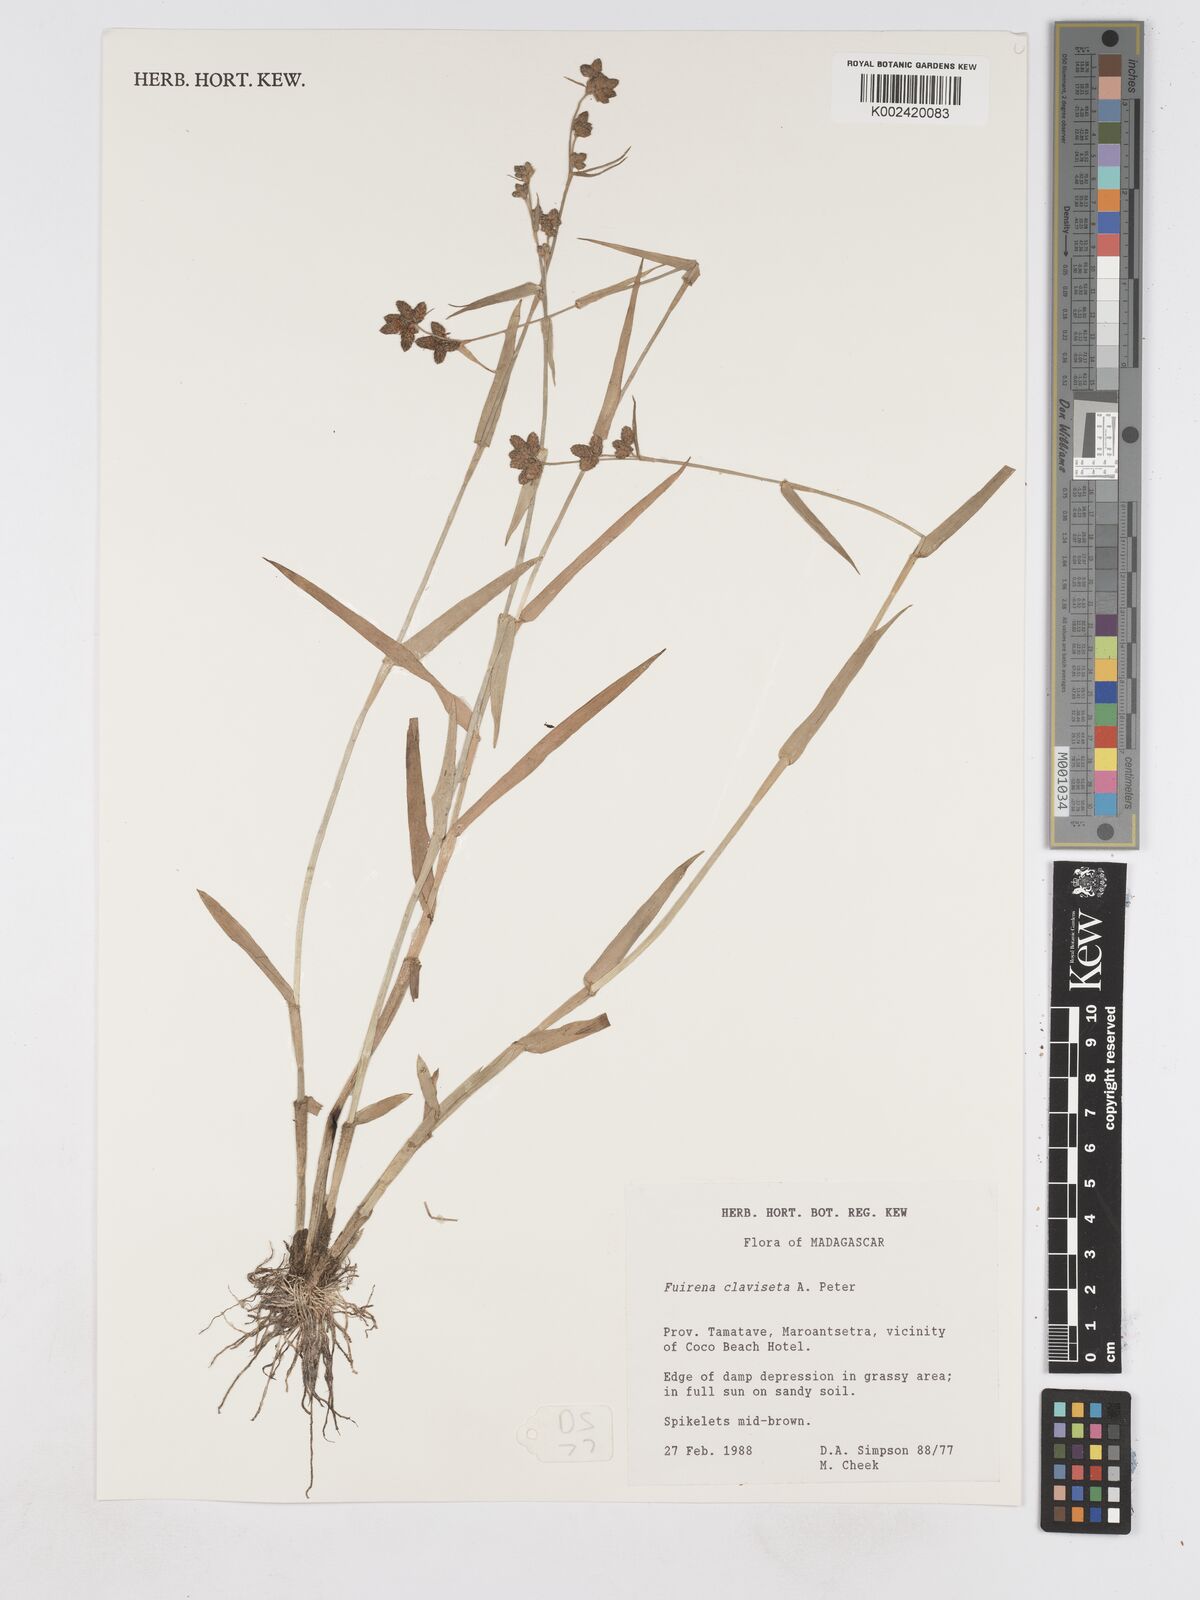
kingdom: Plantae
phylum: Tracheophyta
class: Liliopsida
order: Poales
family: Cyperaceae
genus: Fuirena
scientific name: Fuirena claviseta
